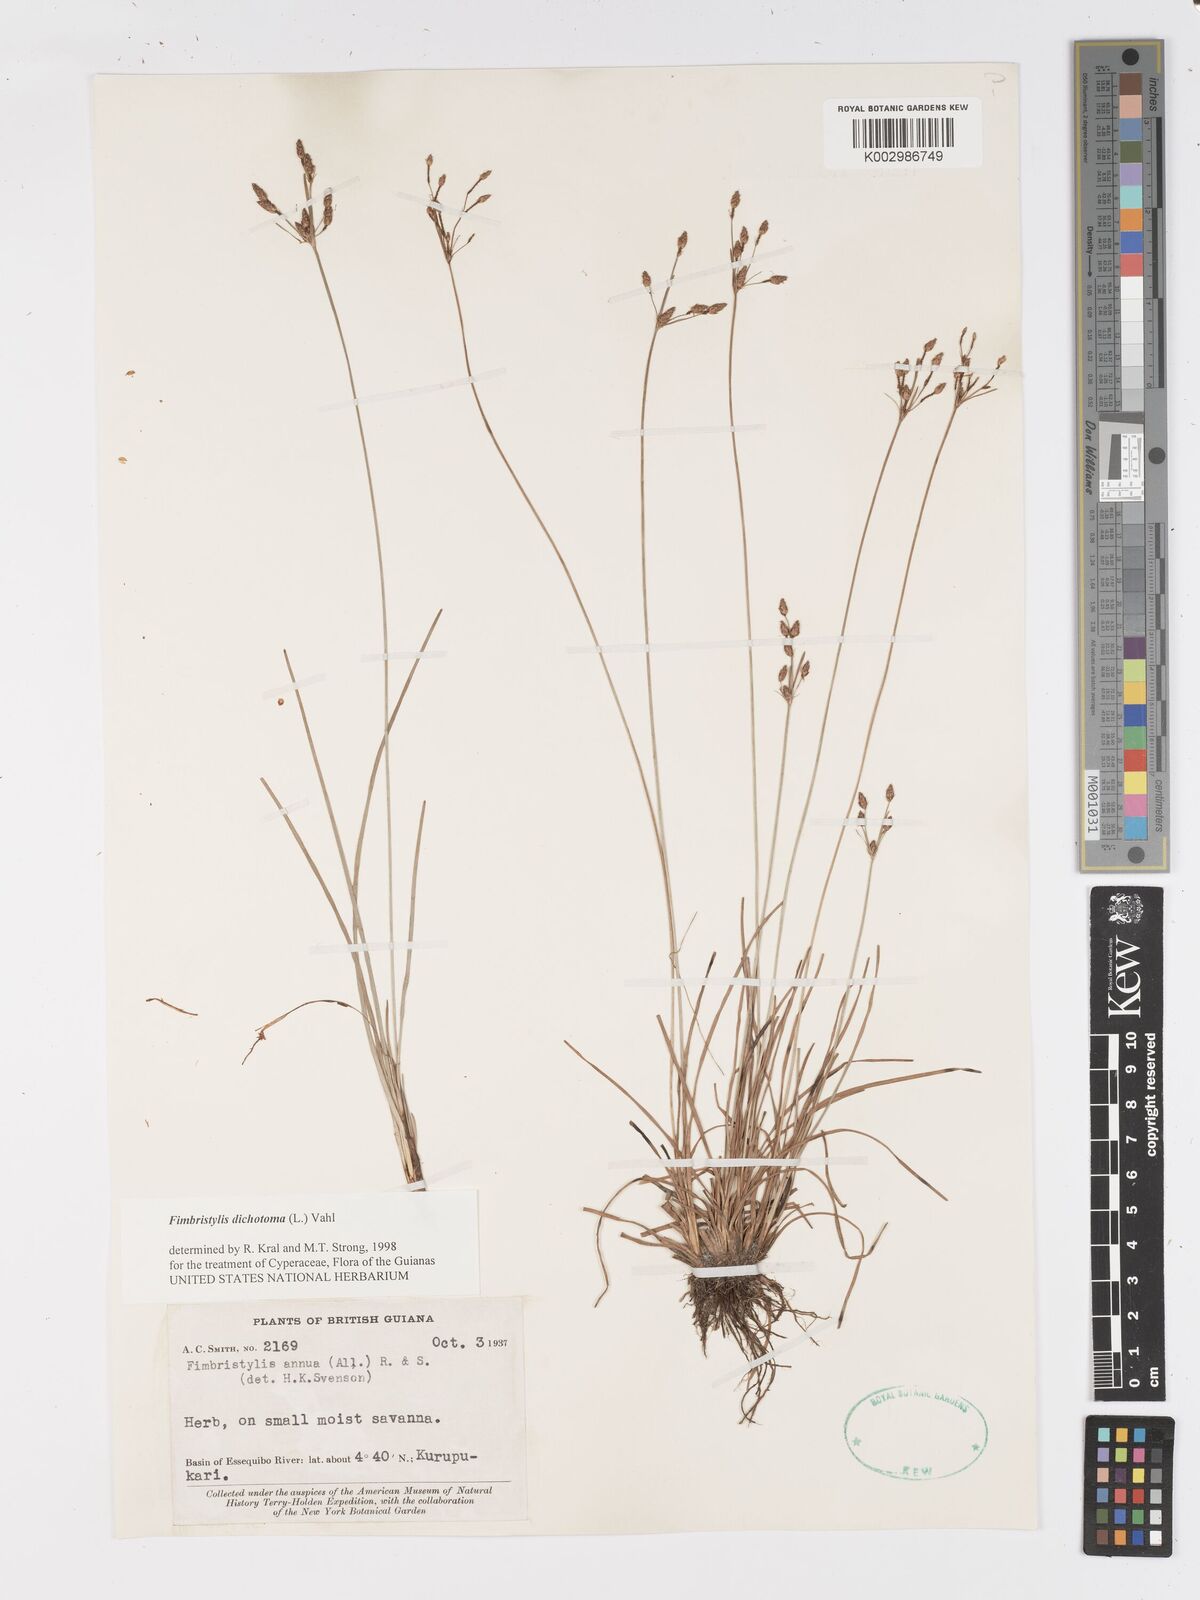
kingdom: Plantae
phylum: Tracheophyta
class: Liliopsida
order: Poales
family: Cyperaceae
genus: Fimbristylis
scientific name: Fimbristylis dichotoma
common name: Forked fimbry
